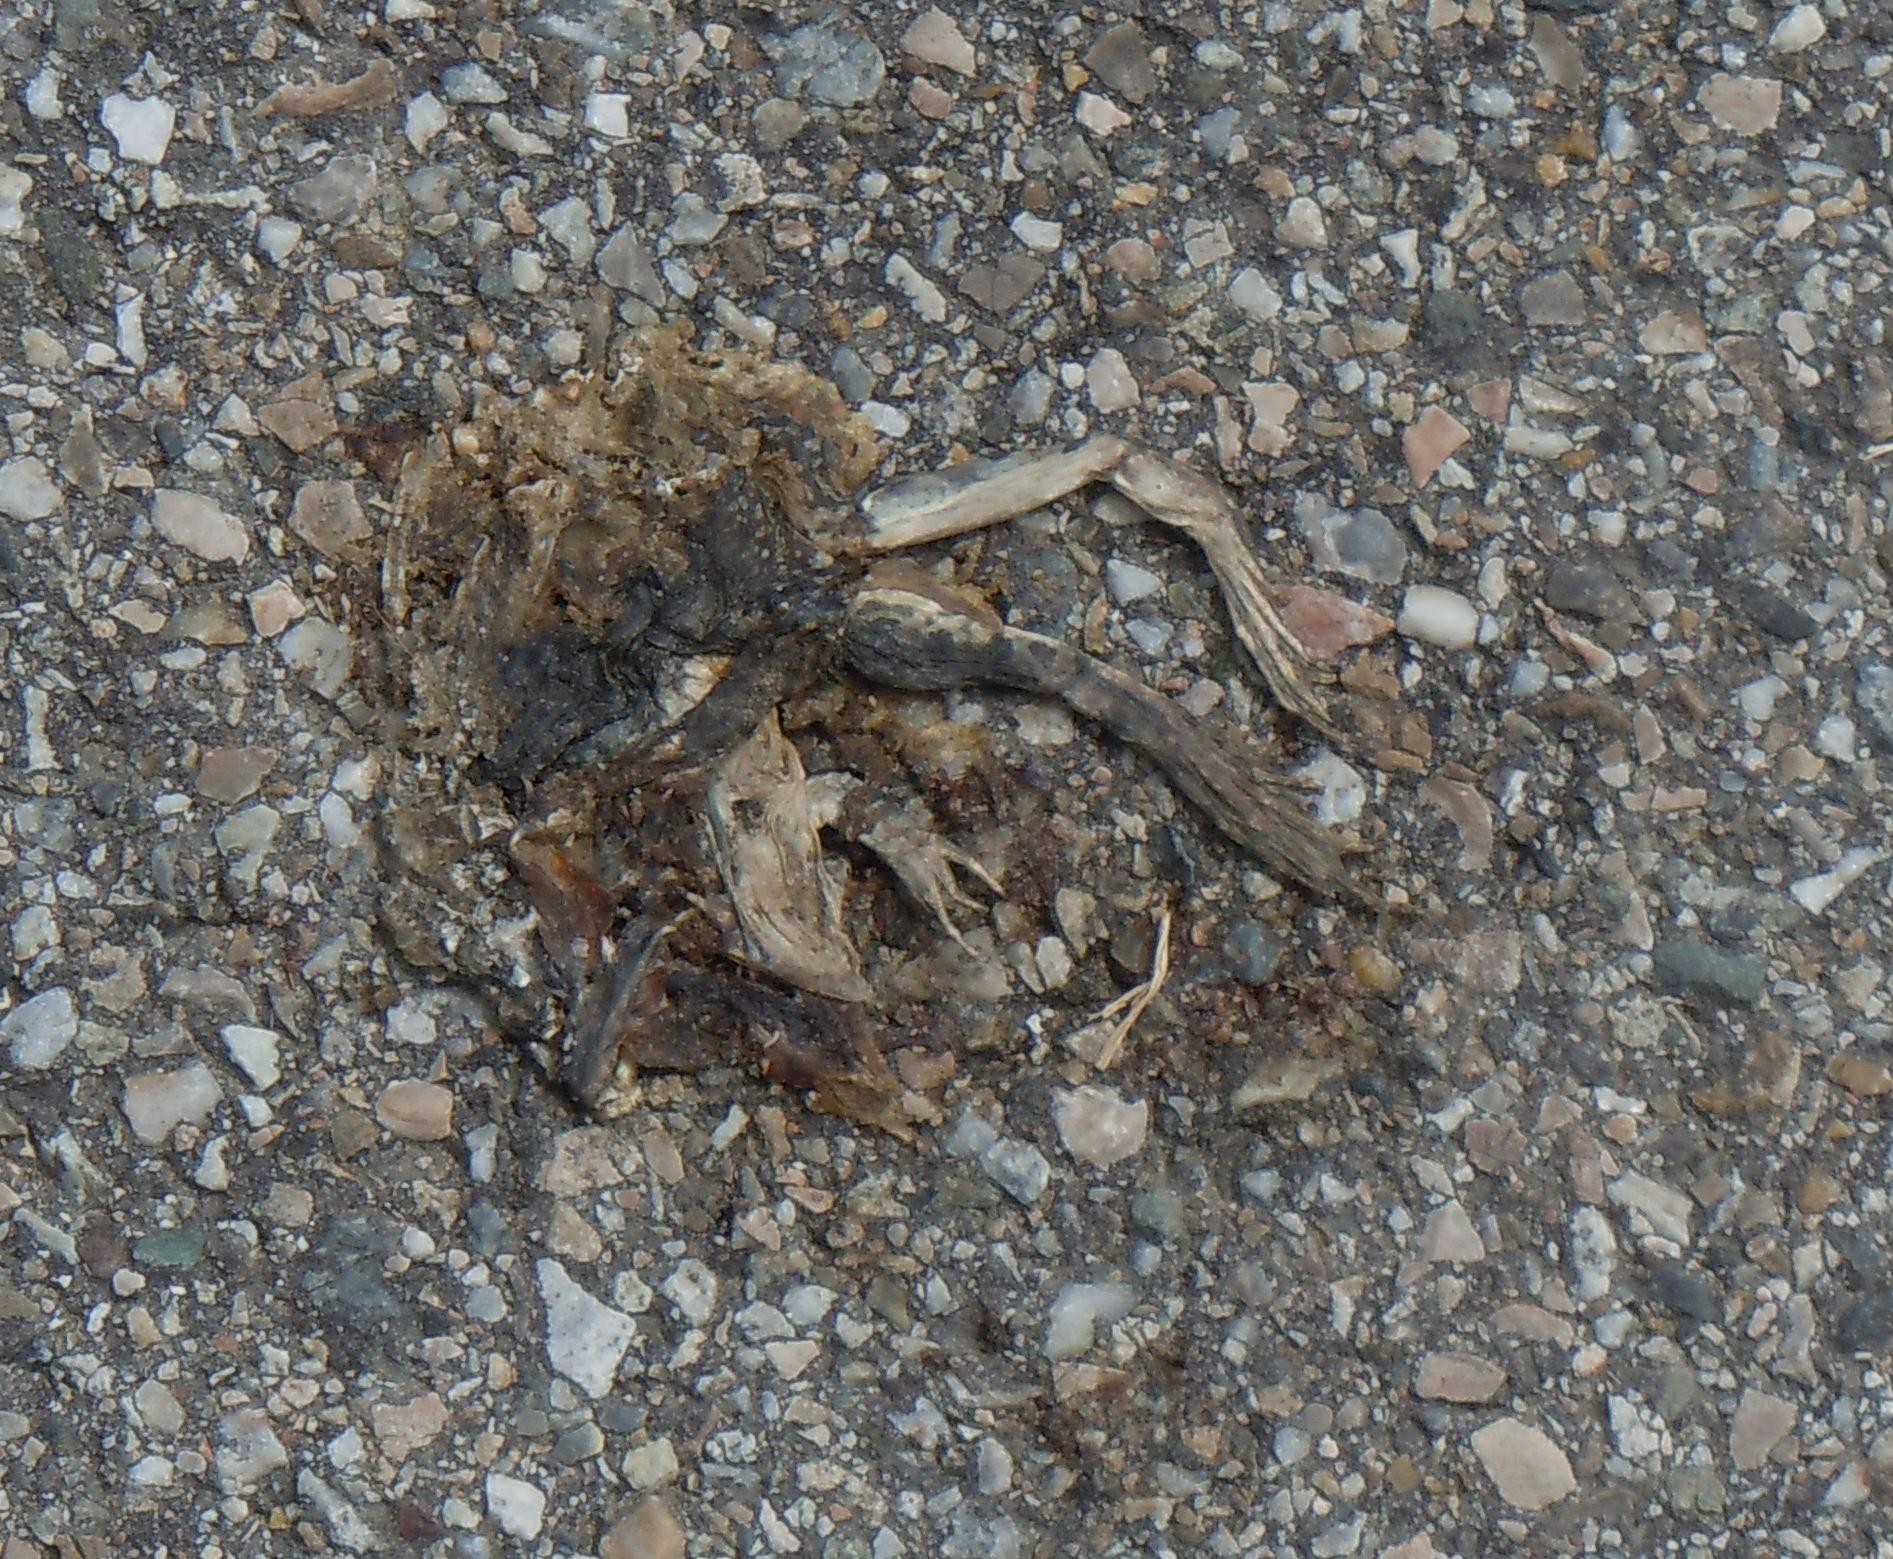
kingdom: Animalia
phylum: Chordata
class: Amphibia
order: Anura
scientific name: Anura
